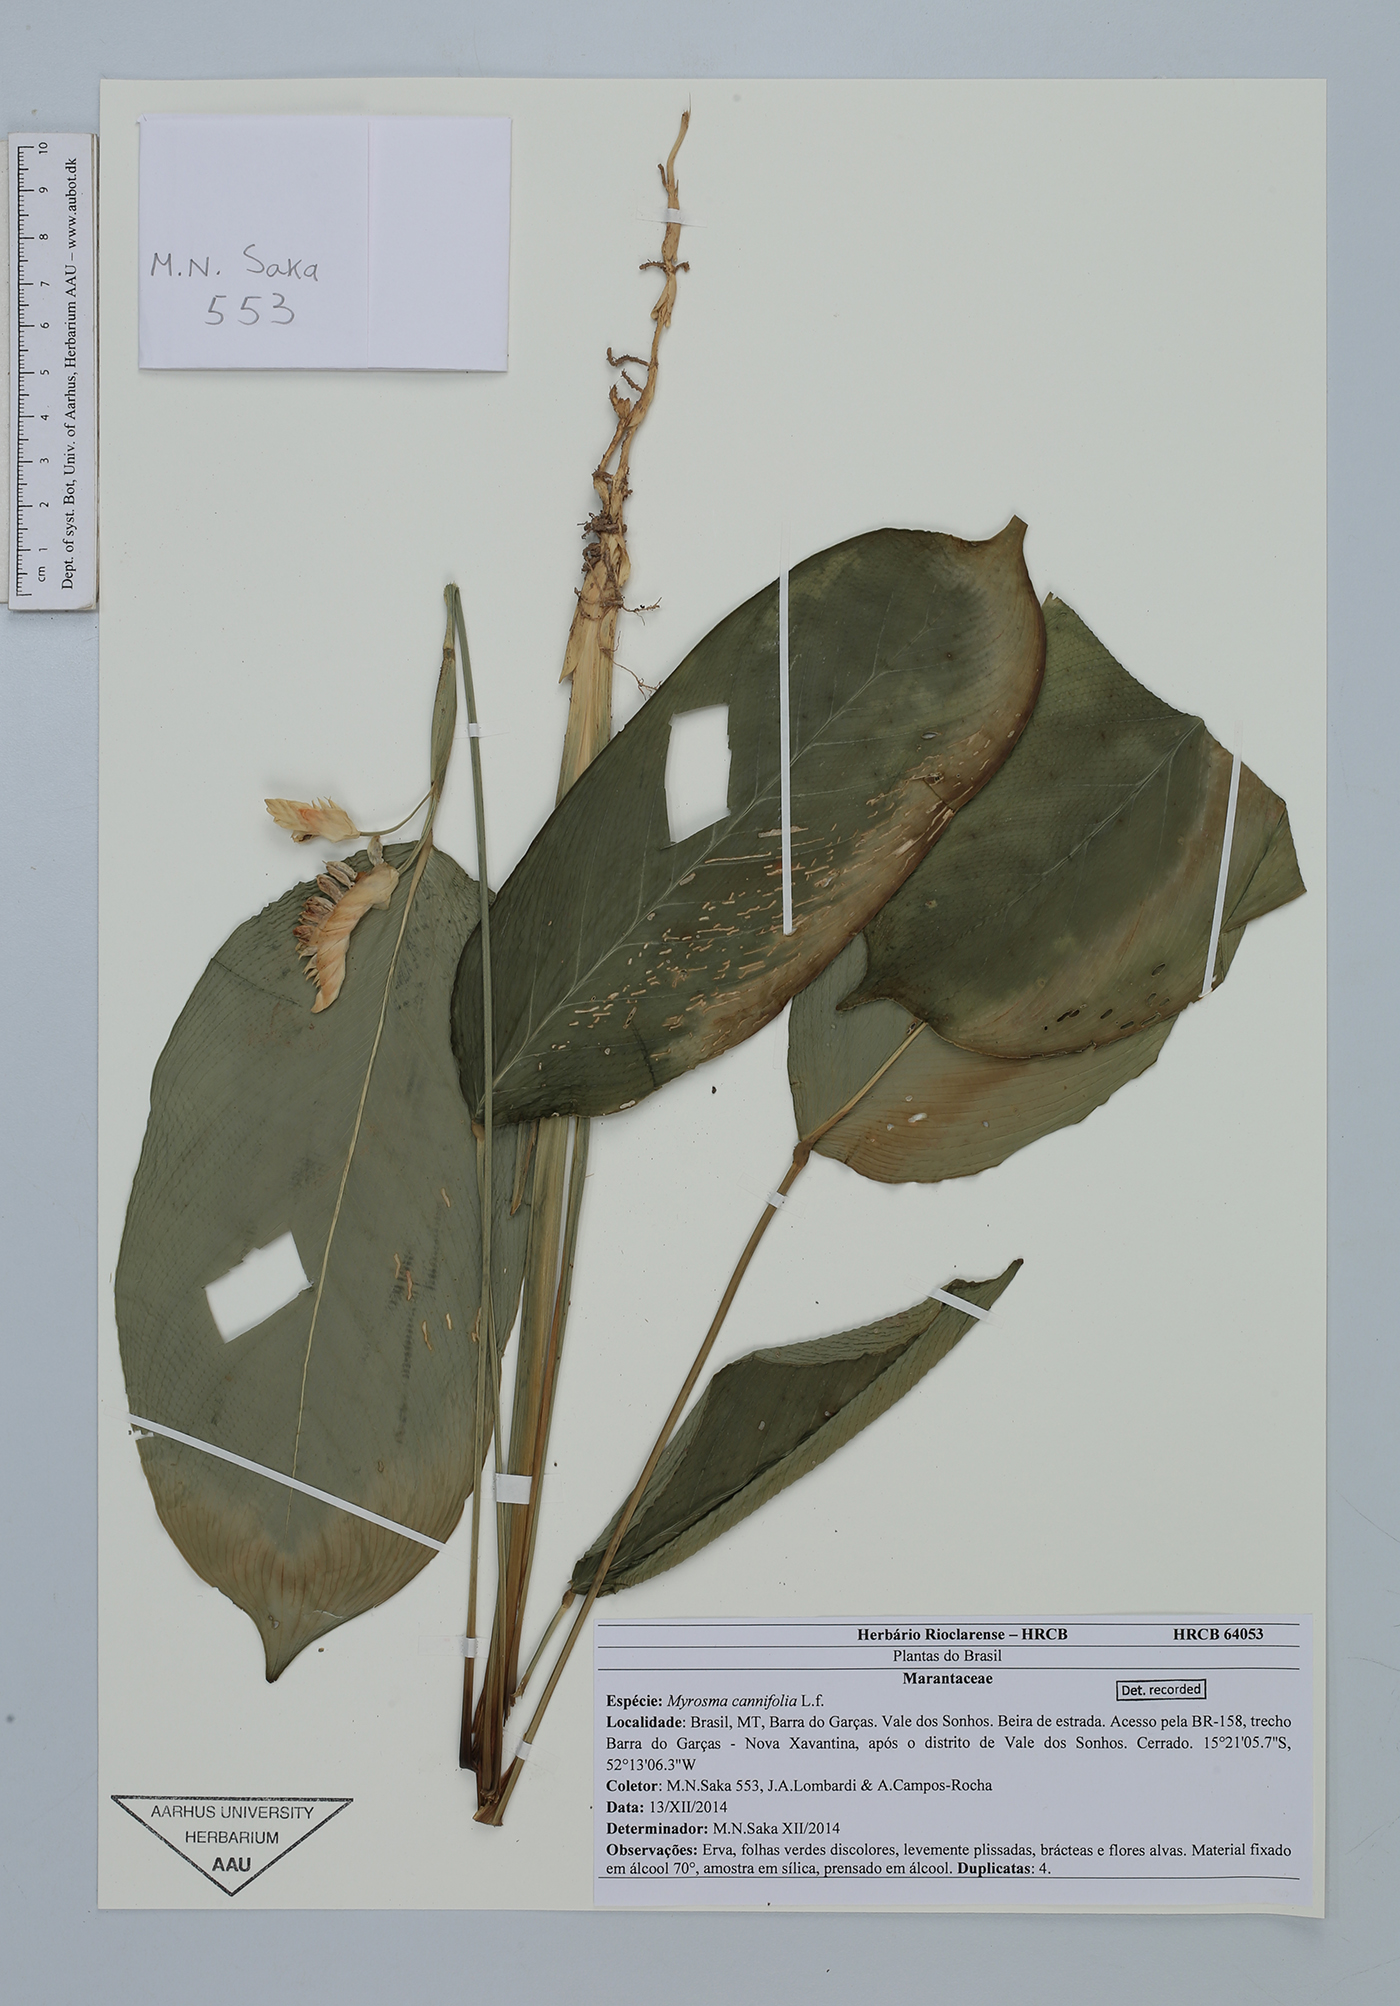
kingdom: Plantae
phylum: Tracheophyta
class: Liliopsida
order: Zingiberales
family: Marantaceae
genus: Maranta
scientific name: Maranta protracta
